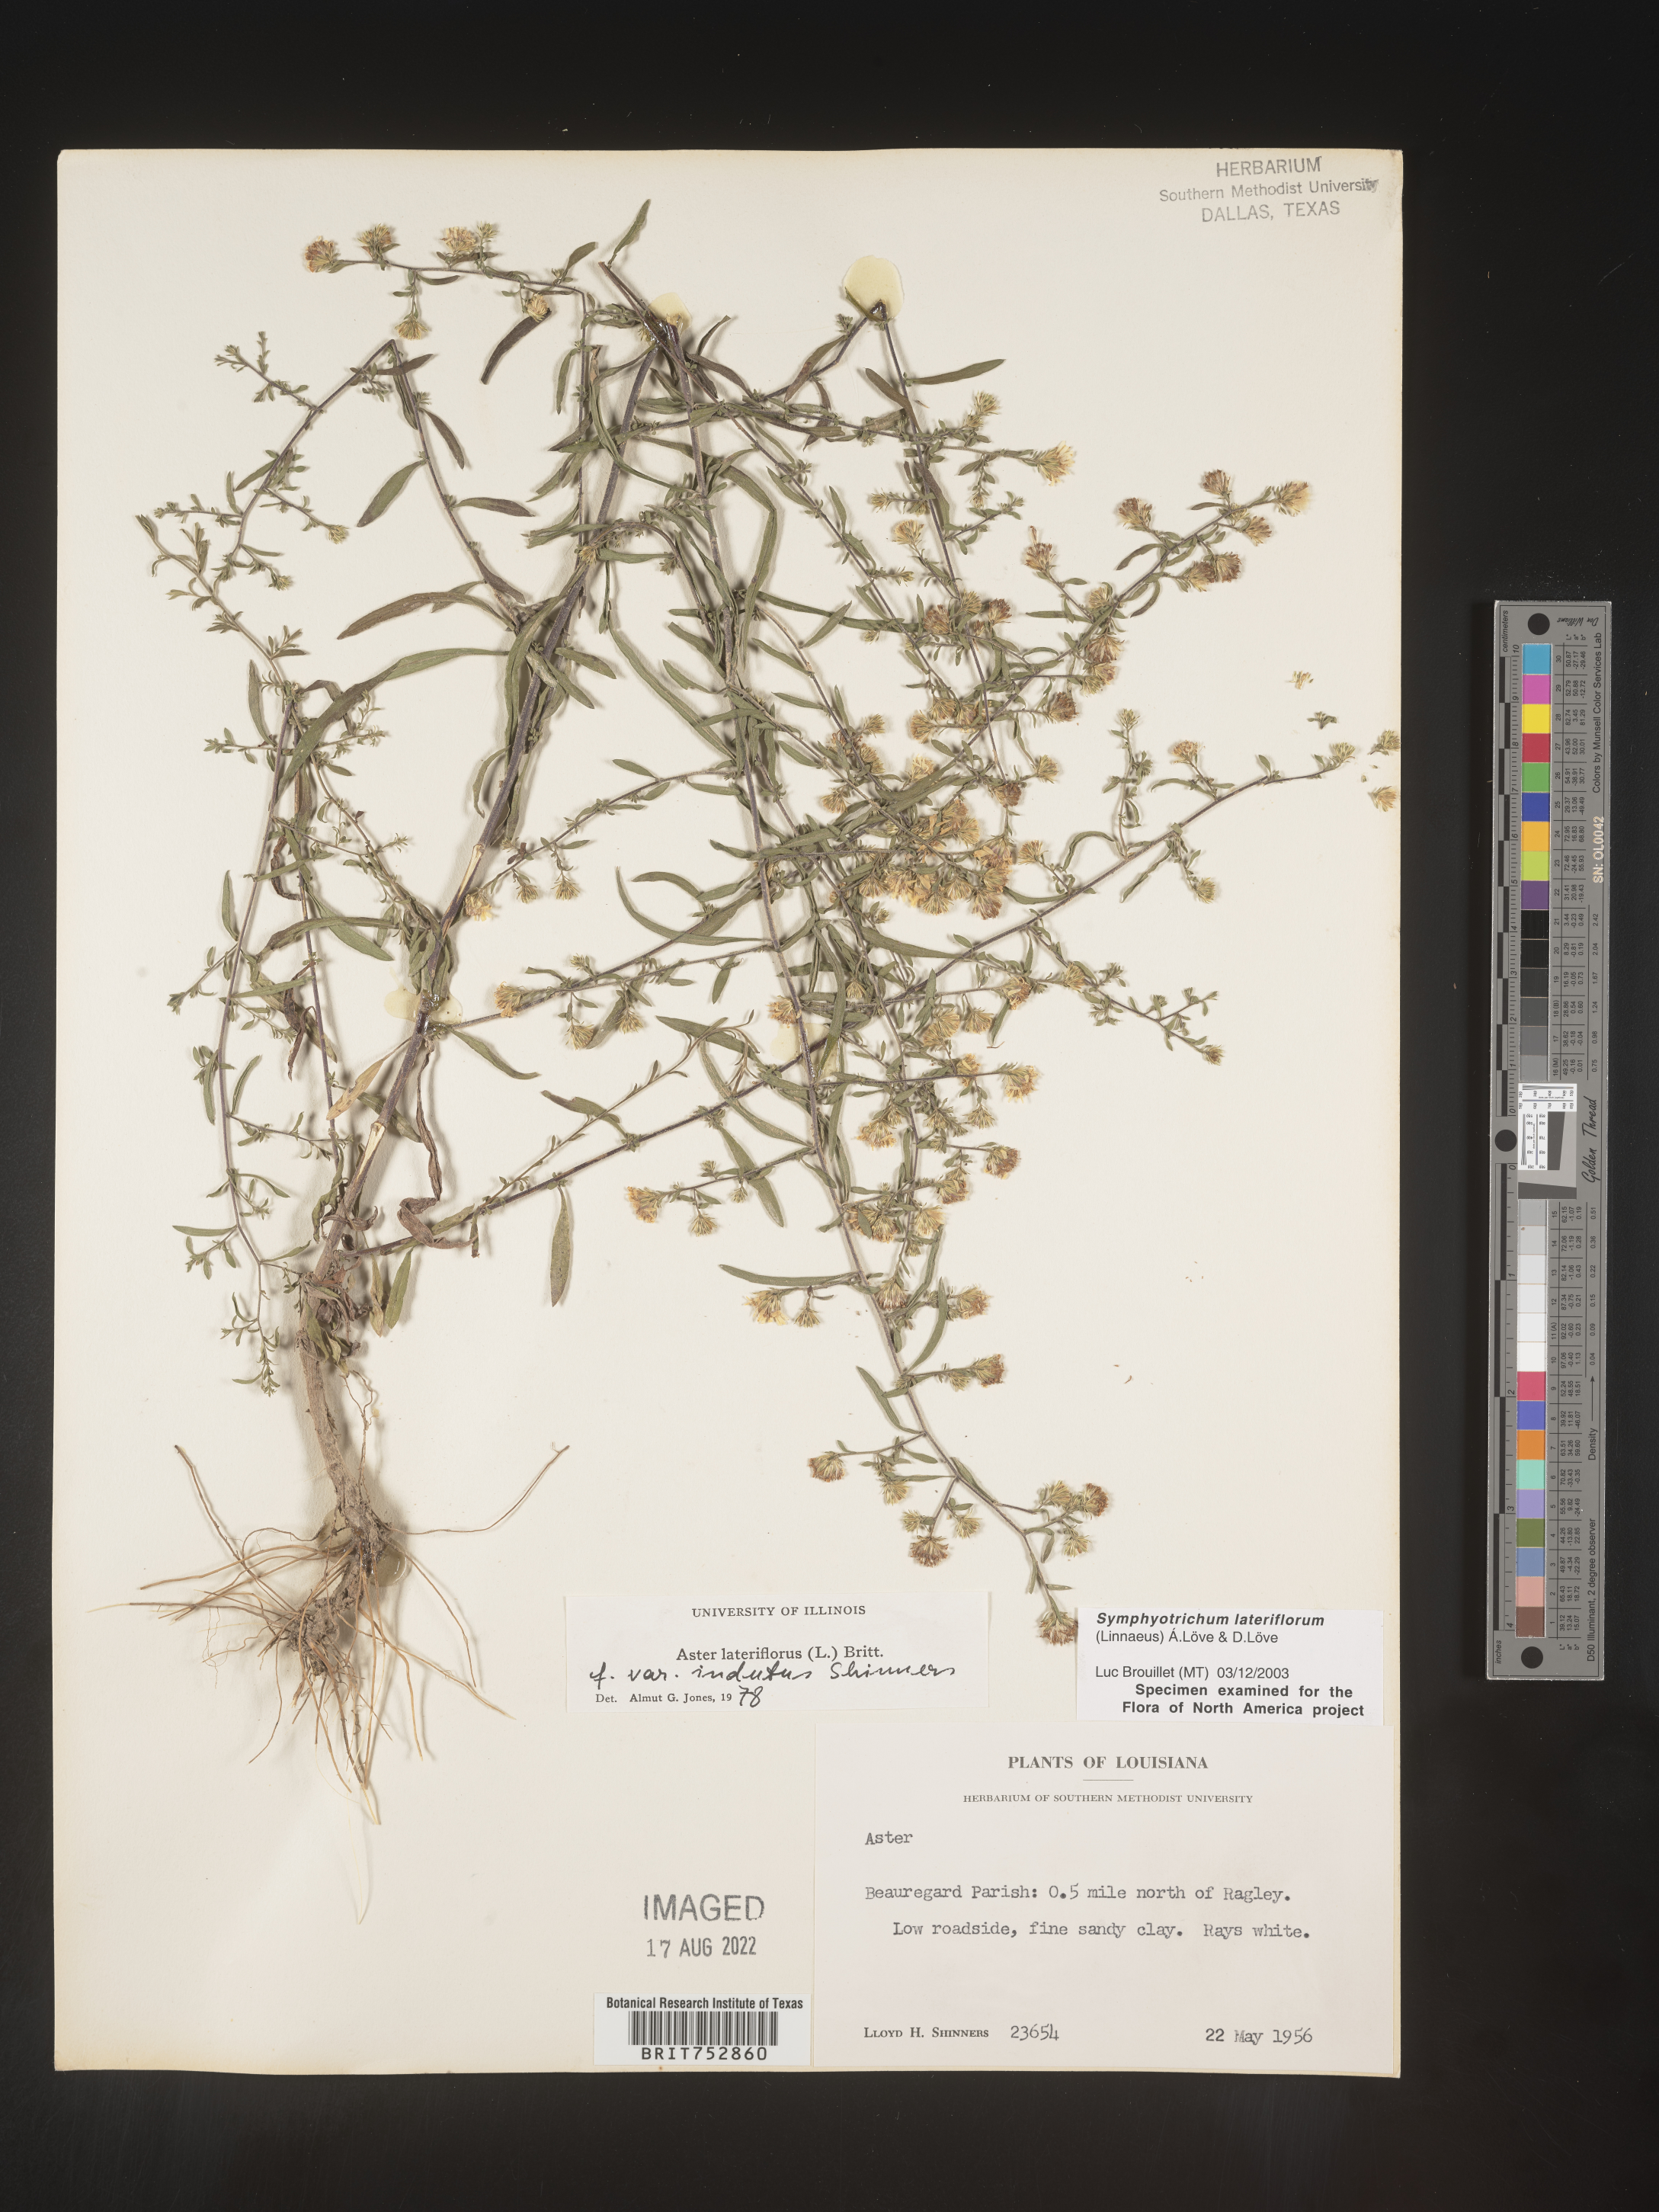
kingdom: Plantae
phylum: Tracheophyta
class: Magnoliopsida
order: Asterales
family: Asteraceae
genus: Symphyotrichum
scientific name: Symphyotrichum lateriflorum
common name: Calico aster
